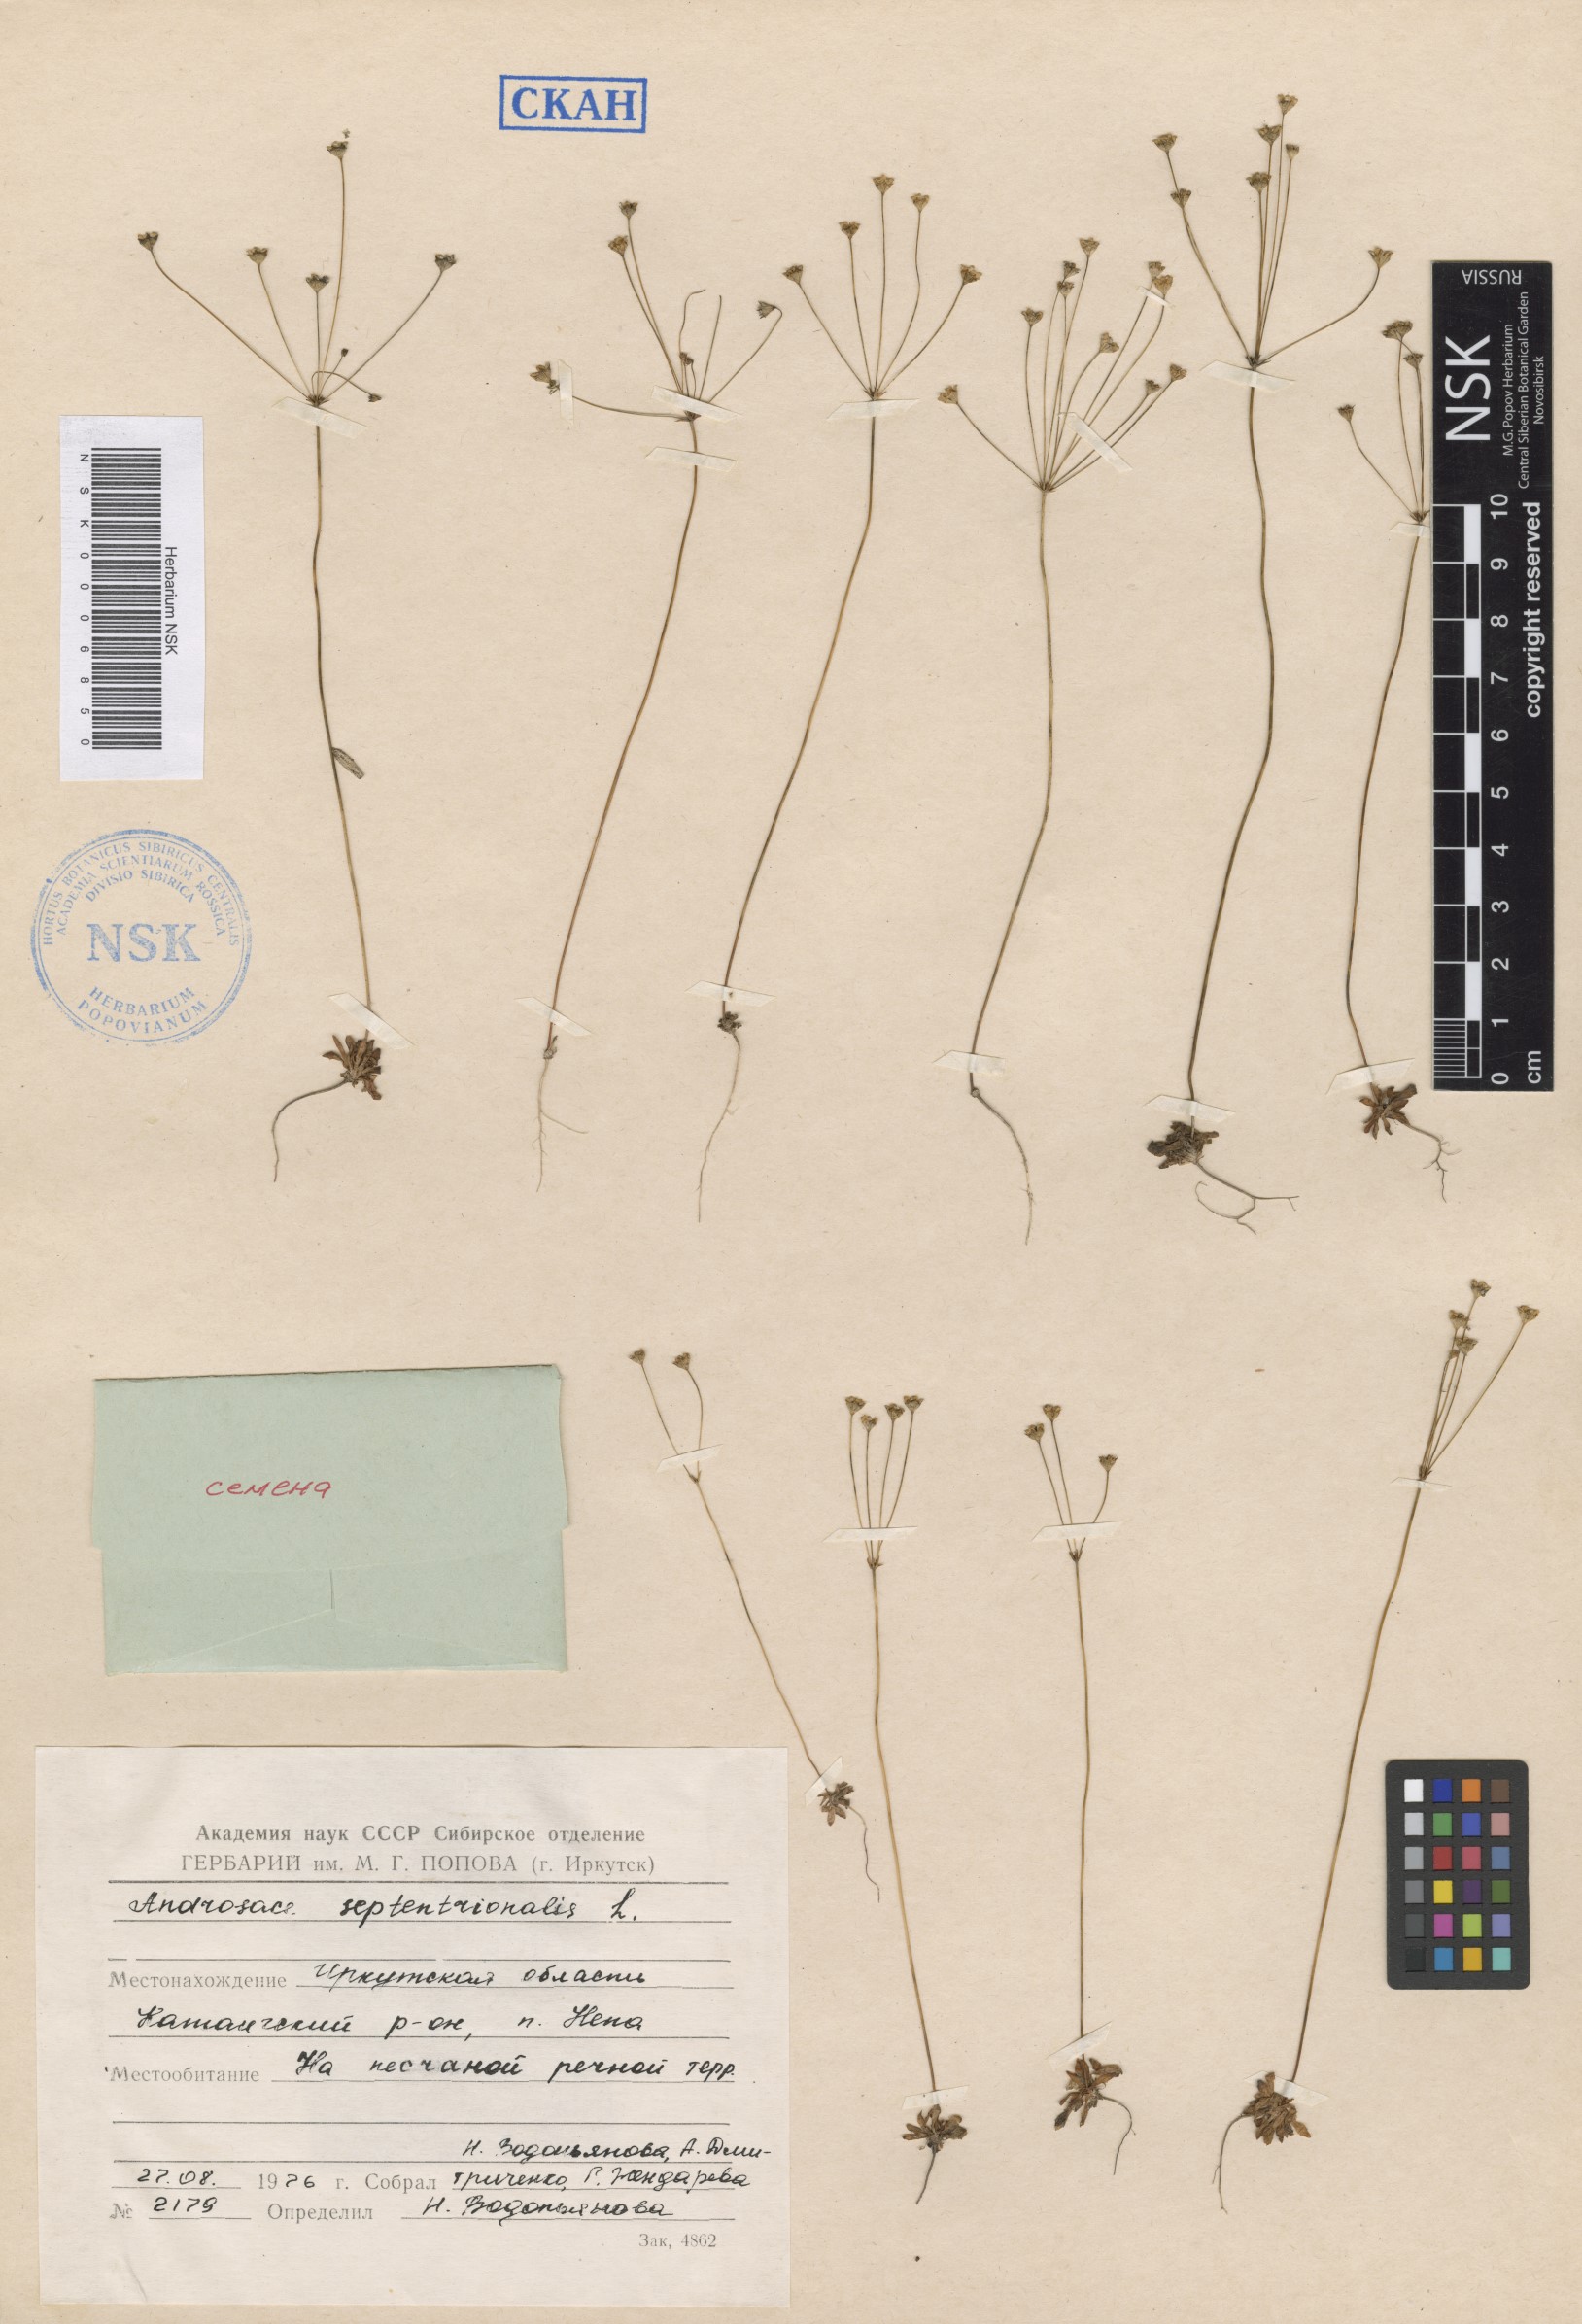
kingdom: Plantae
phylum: Tracheophyta
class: Magnoliopsida
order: Ericales
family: Primulaceae
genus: Androsace
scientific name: Androsace septentrionalis
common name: Hairy northern fairy-candelabra
